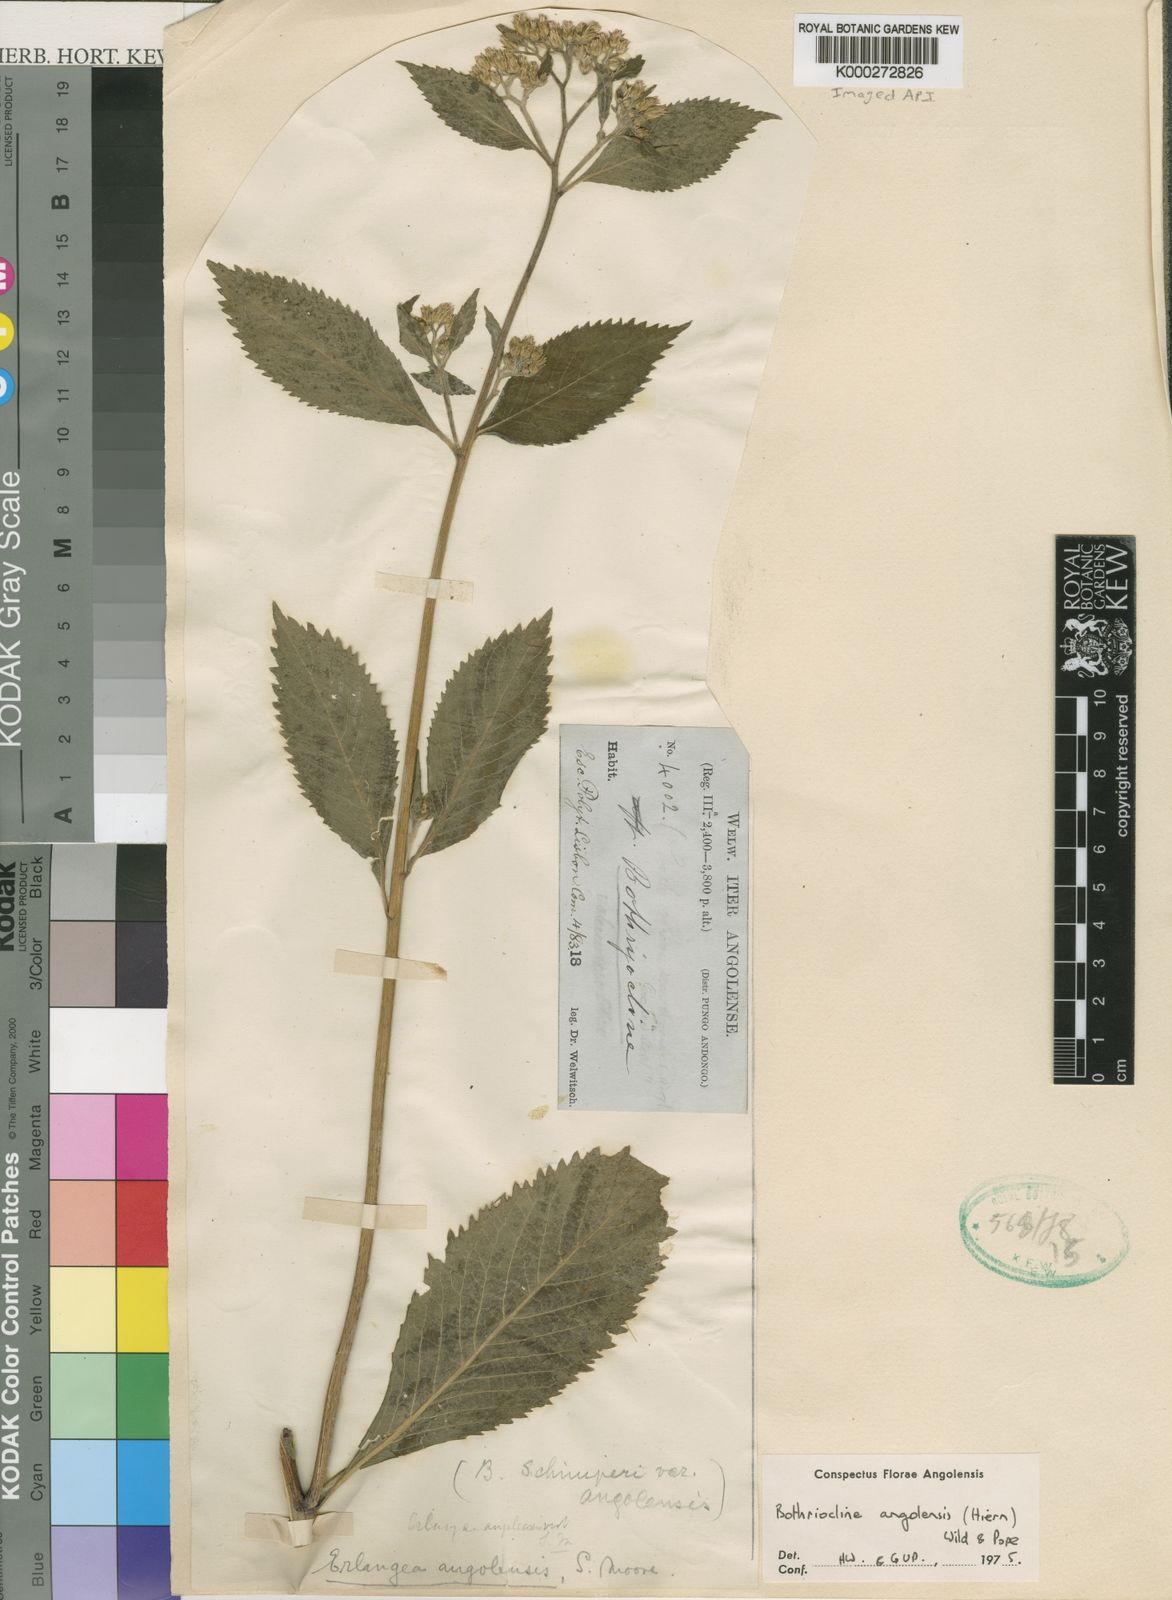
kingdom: Plantae
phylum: Tracheophyta
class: Magnoliopsida
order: Asterales
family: Asteraceae
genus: Bothriocline
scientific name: Bothriocline schimperi
